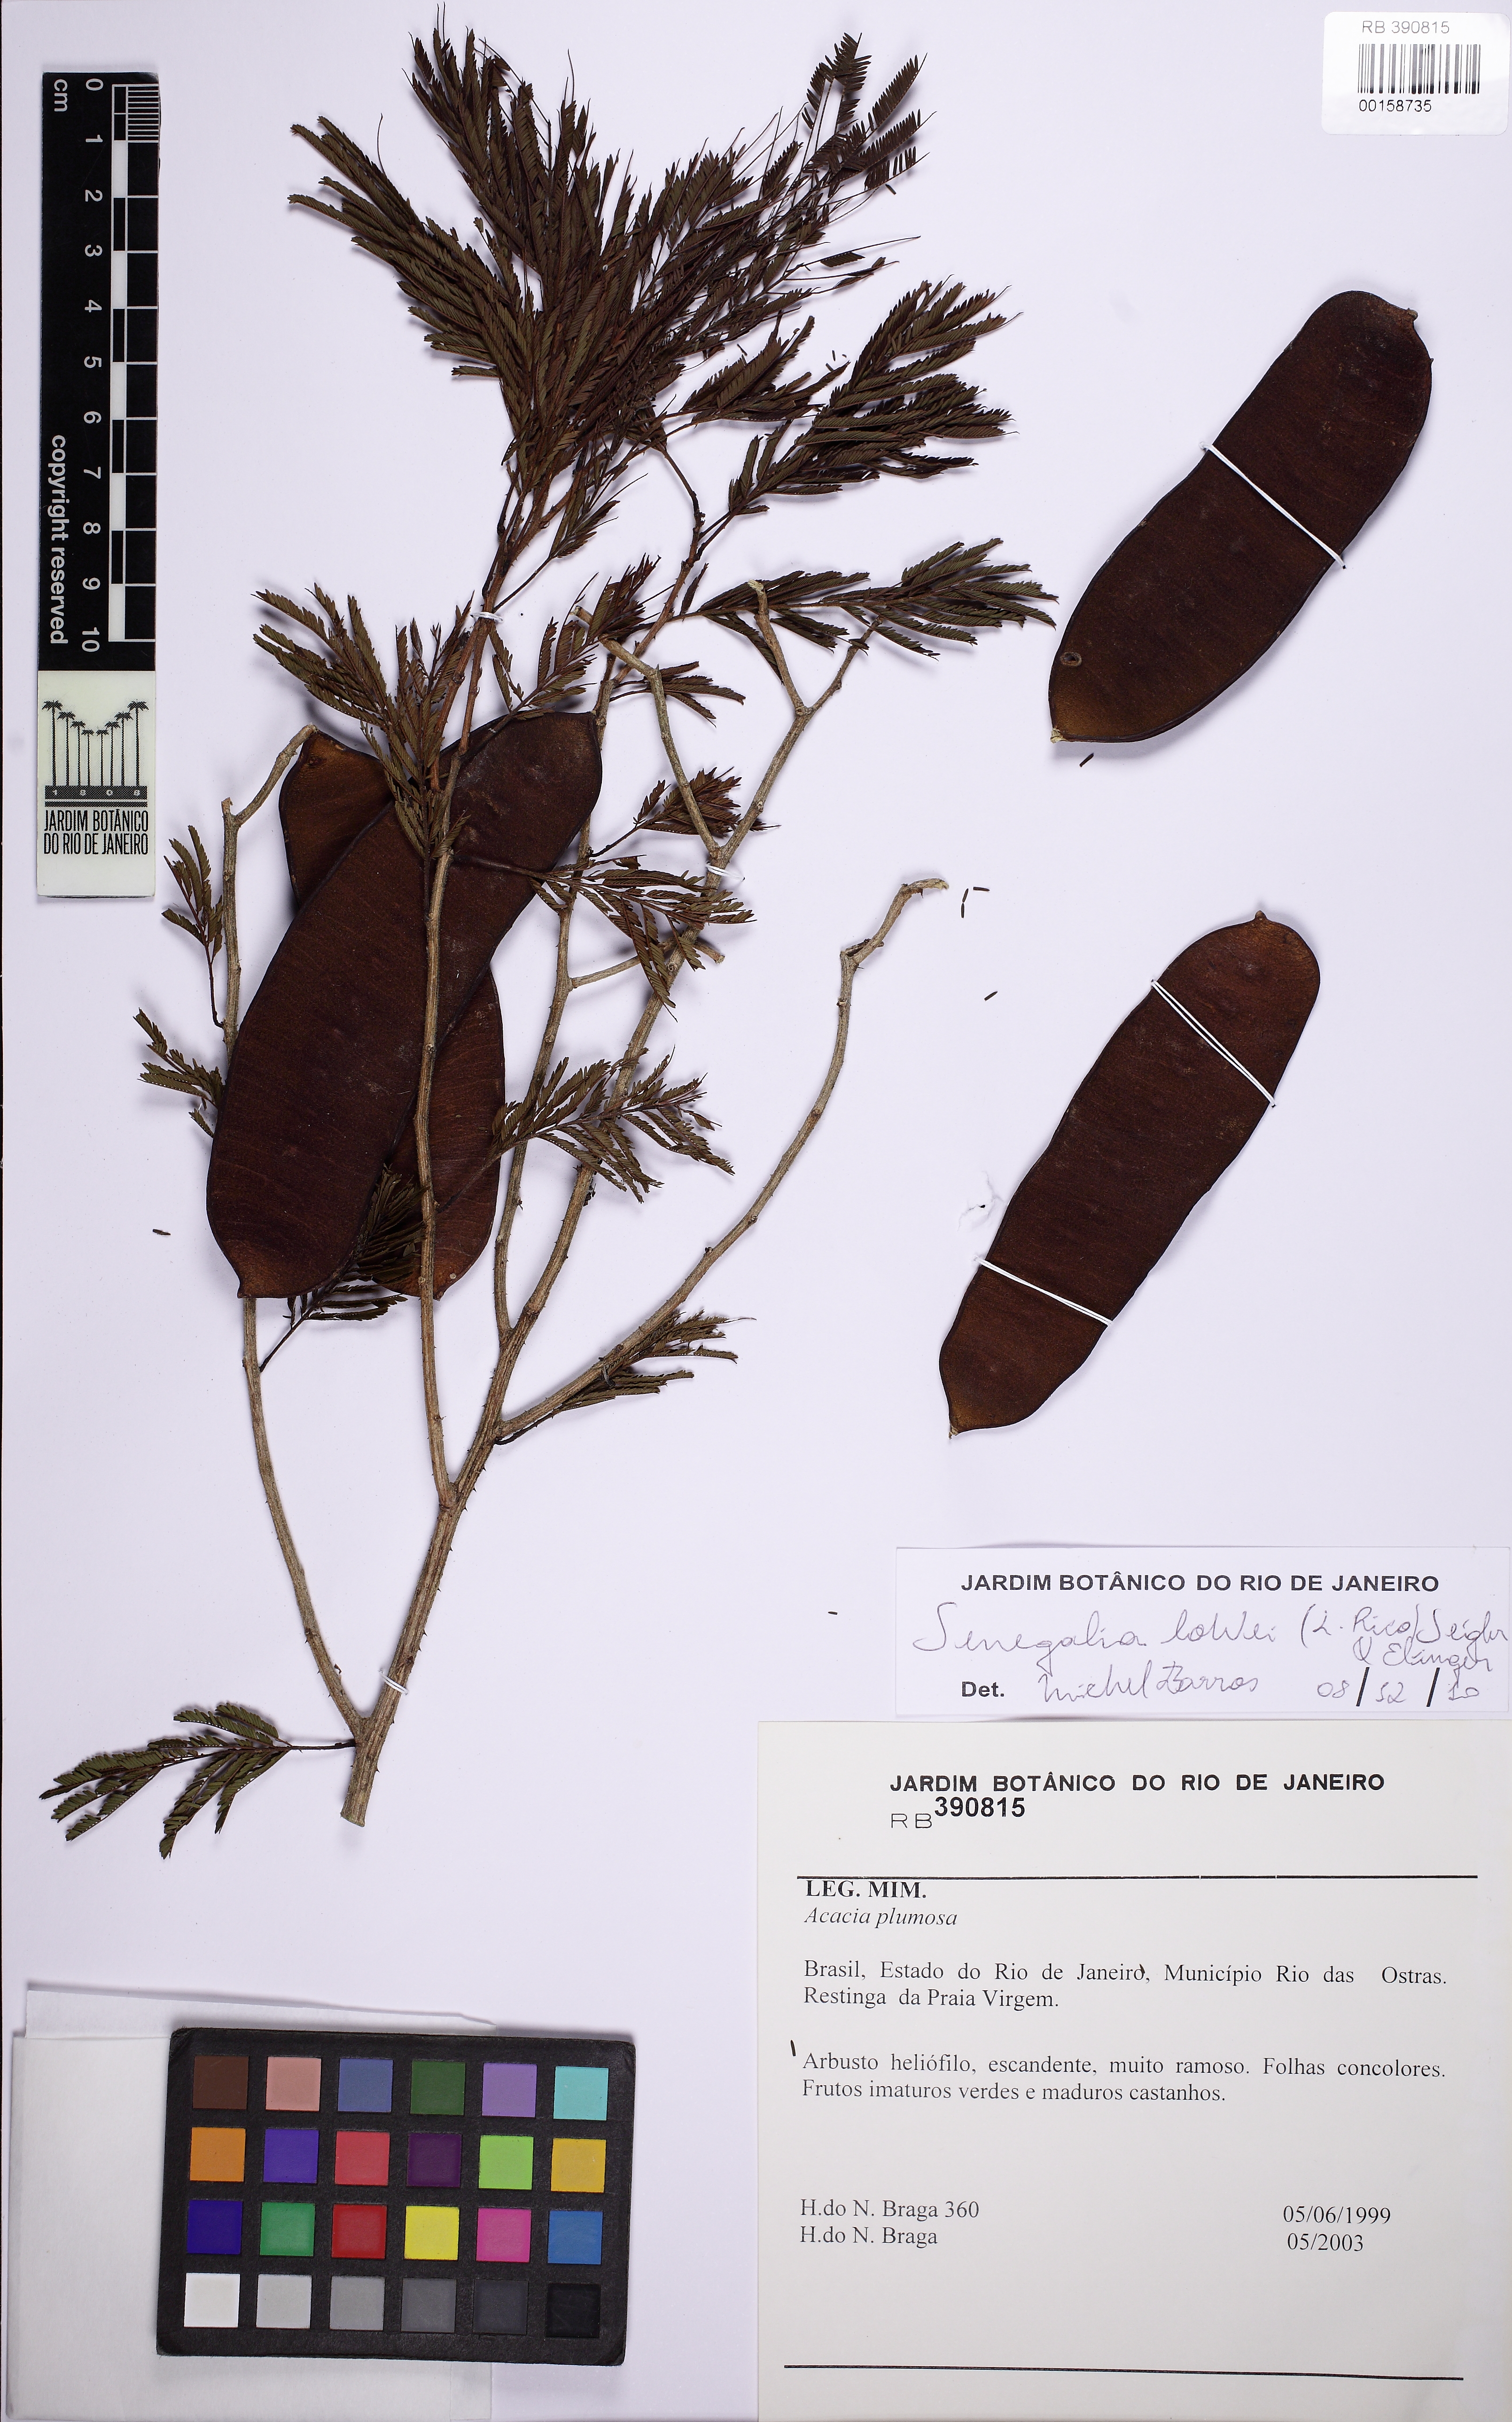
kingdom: Plantae
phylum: Tracheophyta
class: Magnoliopsida
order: Fabales
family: Fabaceae
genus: Senegalia
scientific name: Senegalia angico
